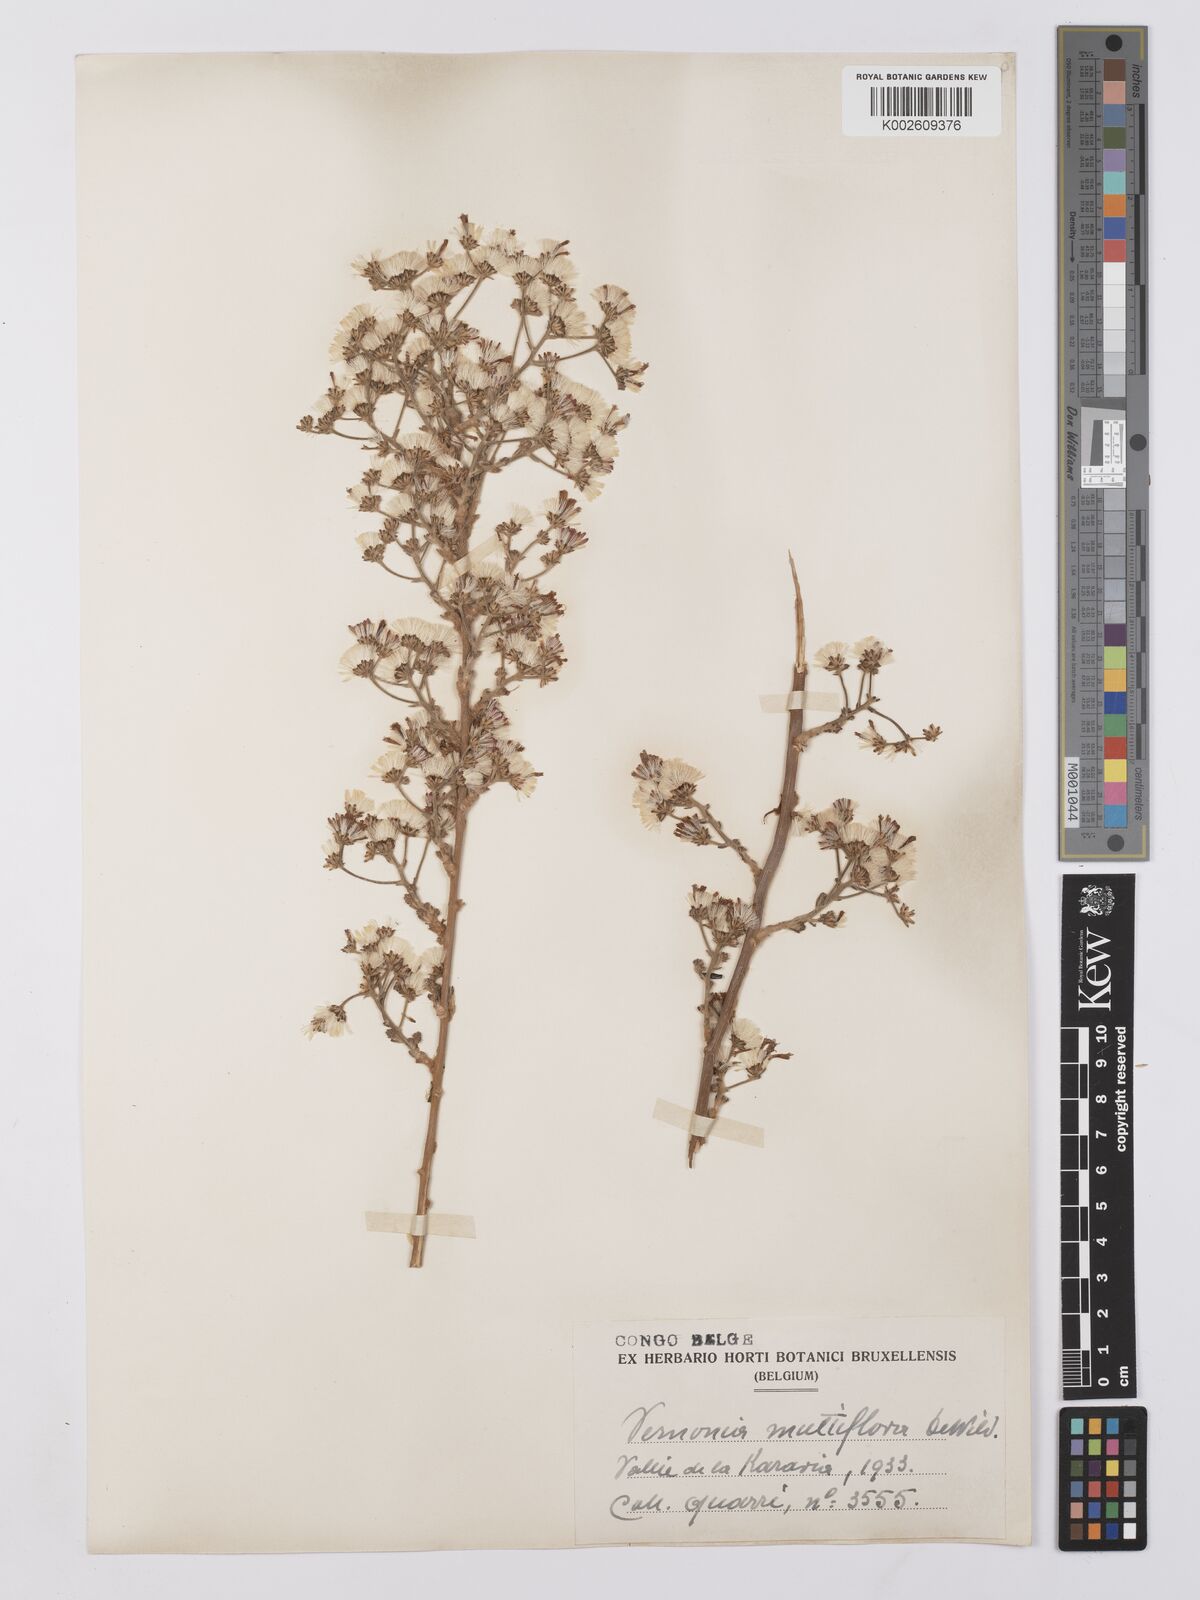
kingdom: Plantae
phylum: Tracheophyta
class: Magnoliopsida
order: Asterales
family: Asteraceae
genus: Vernonia
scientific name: Vernonia suprafastigiata
